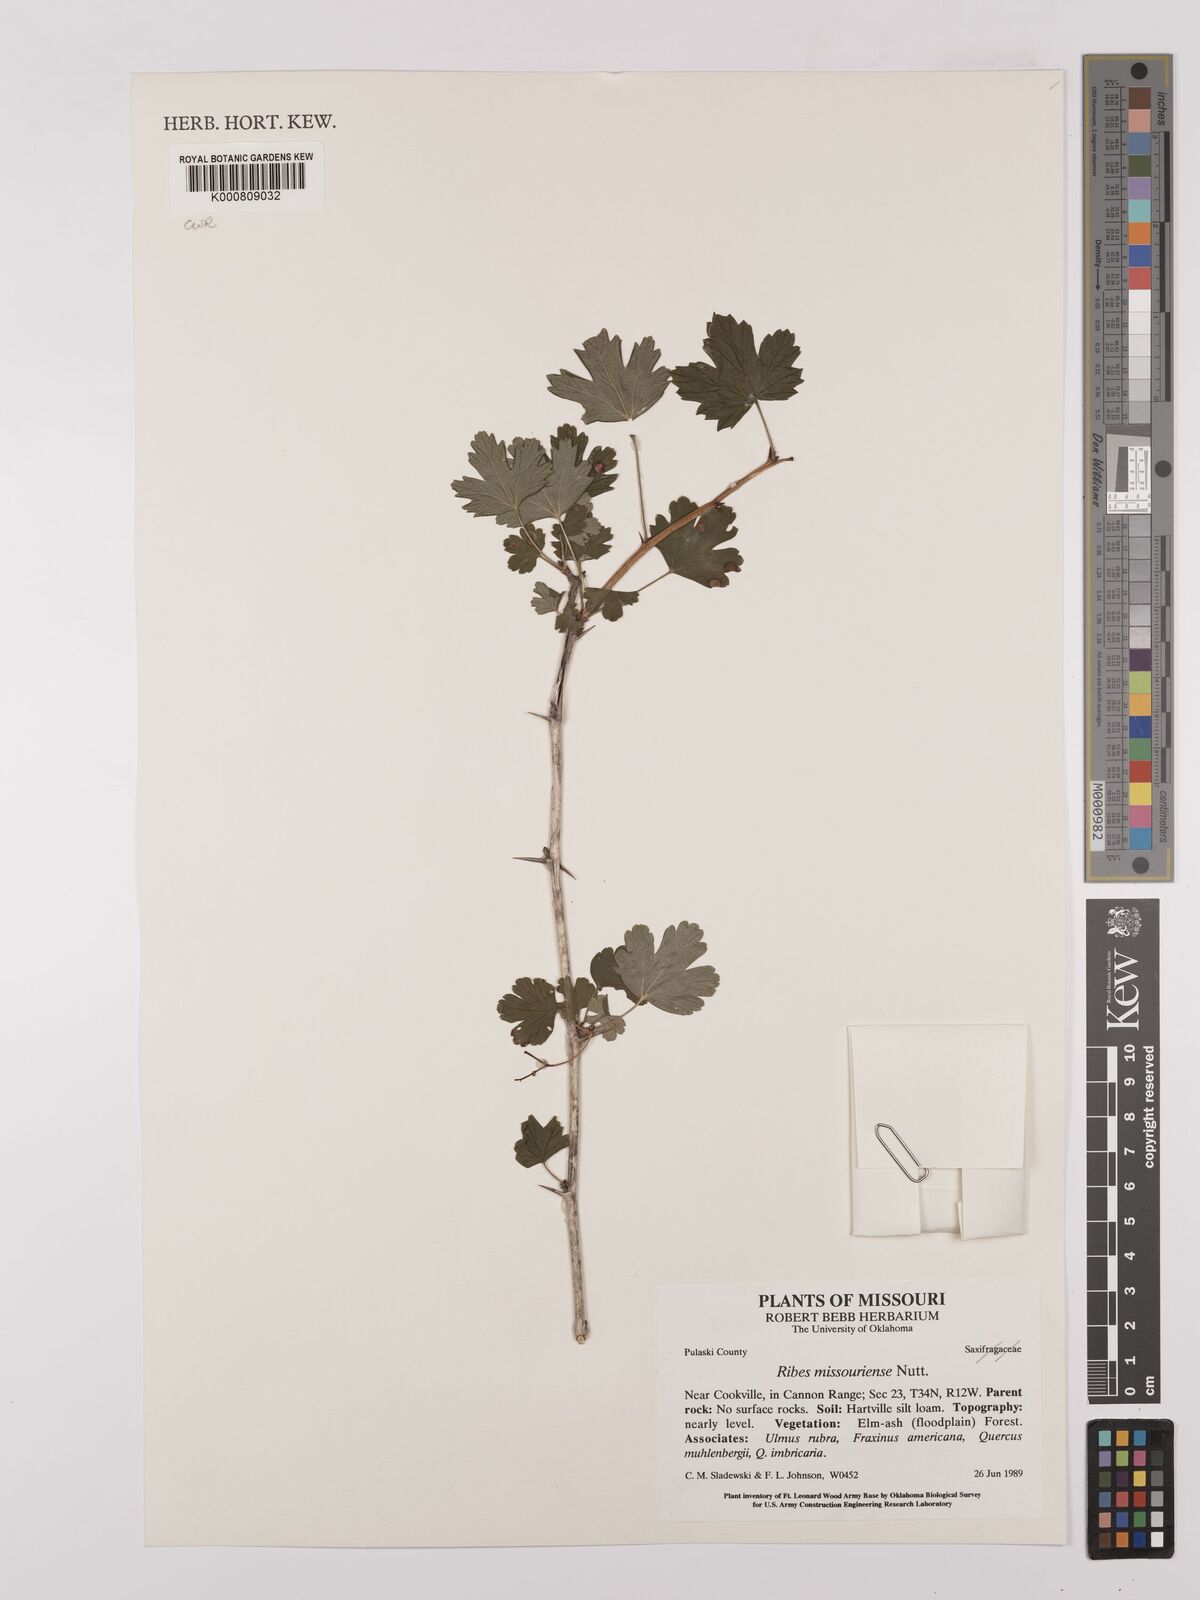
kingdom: Plantae
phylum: Tracheophyta
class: Magnoliopsida
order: Saxifragales
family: Grossulariaceae
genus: Ribes
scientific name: Ribes missouriense
